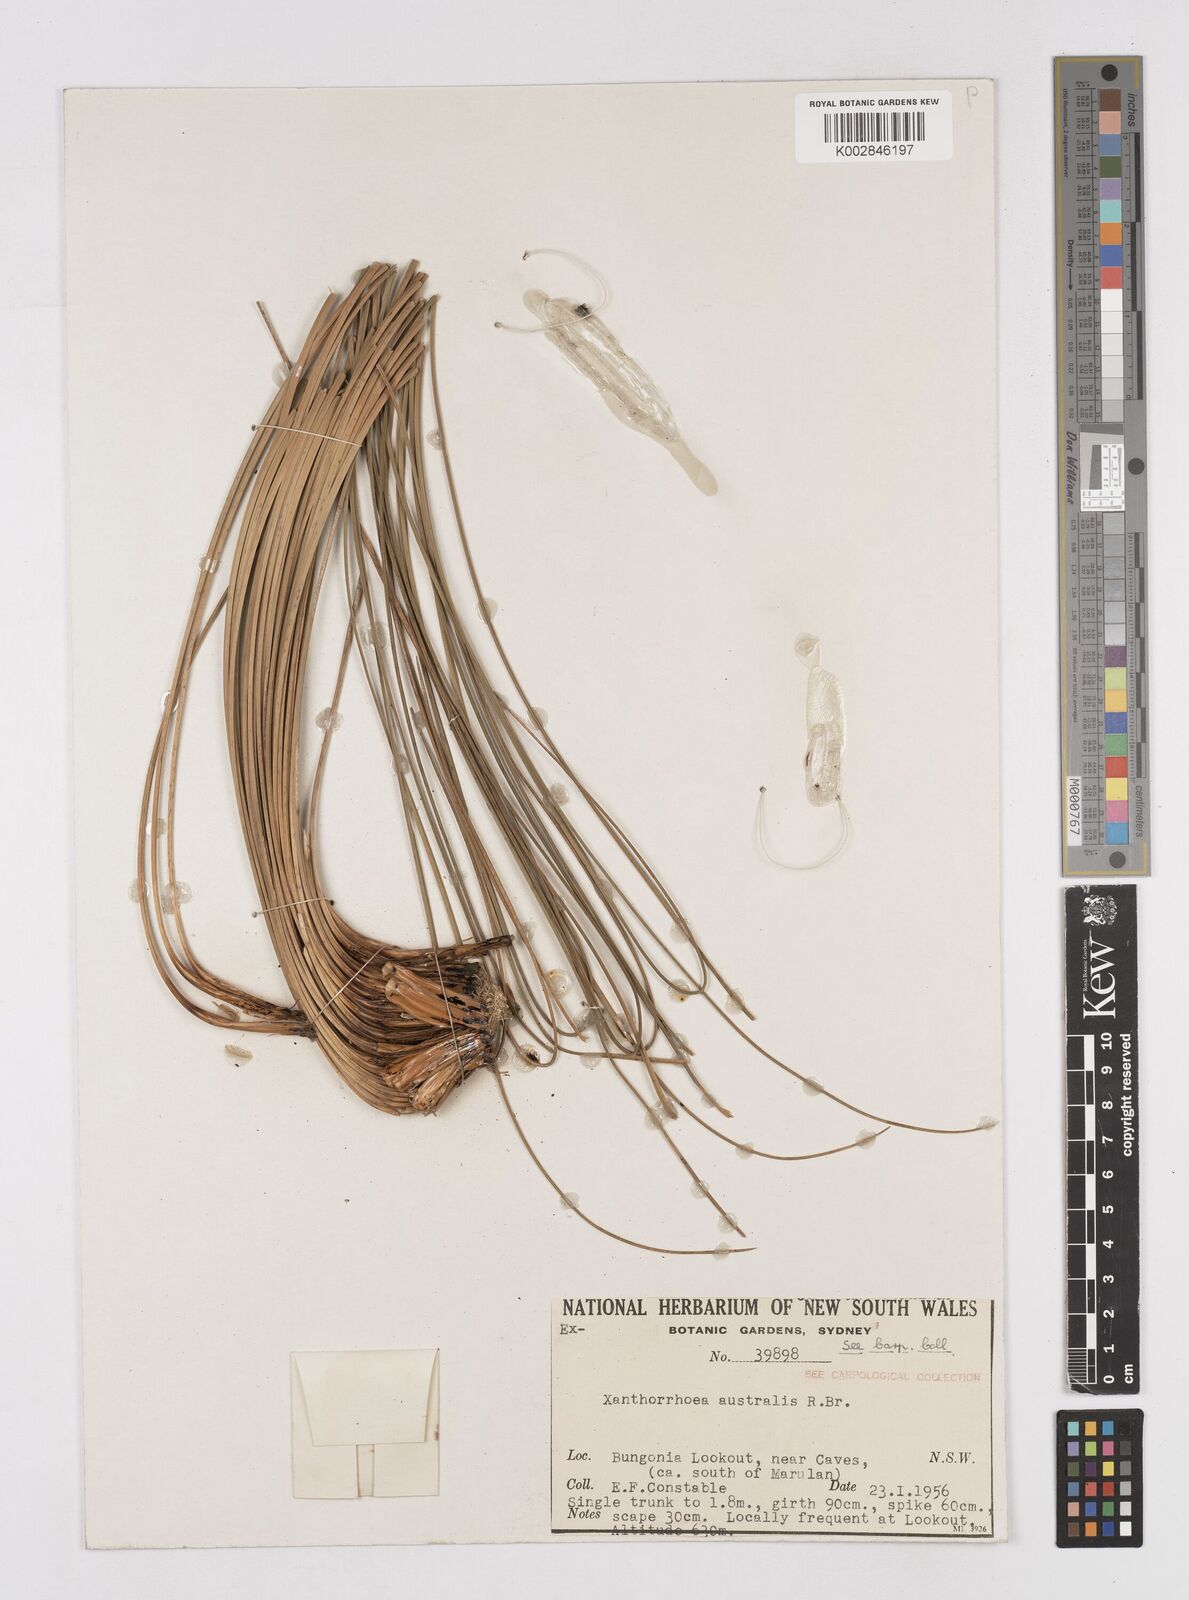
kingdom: Plantae
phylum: Tracheophyta
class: Liliopsida
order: Asparagales
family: Asphodelaceae
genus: Xanthorrhoea
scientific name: Xanthorrhoea australis
